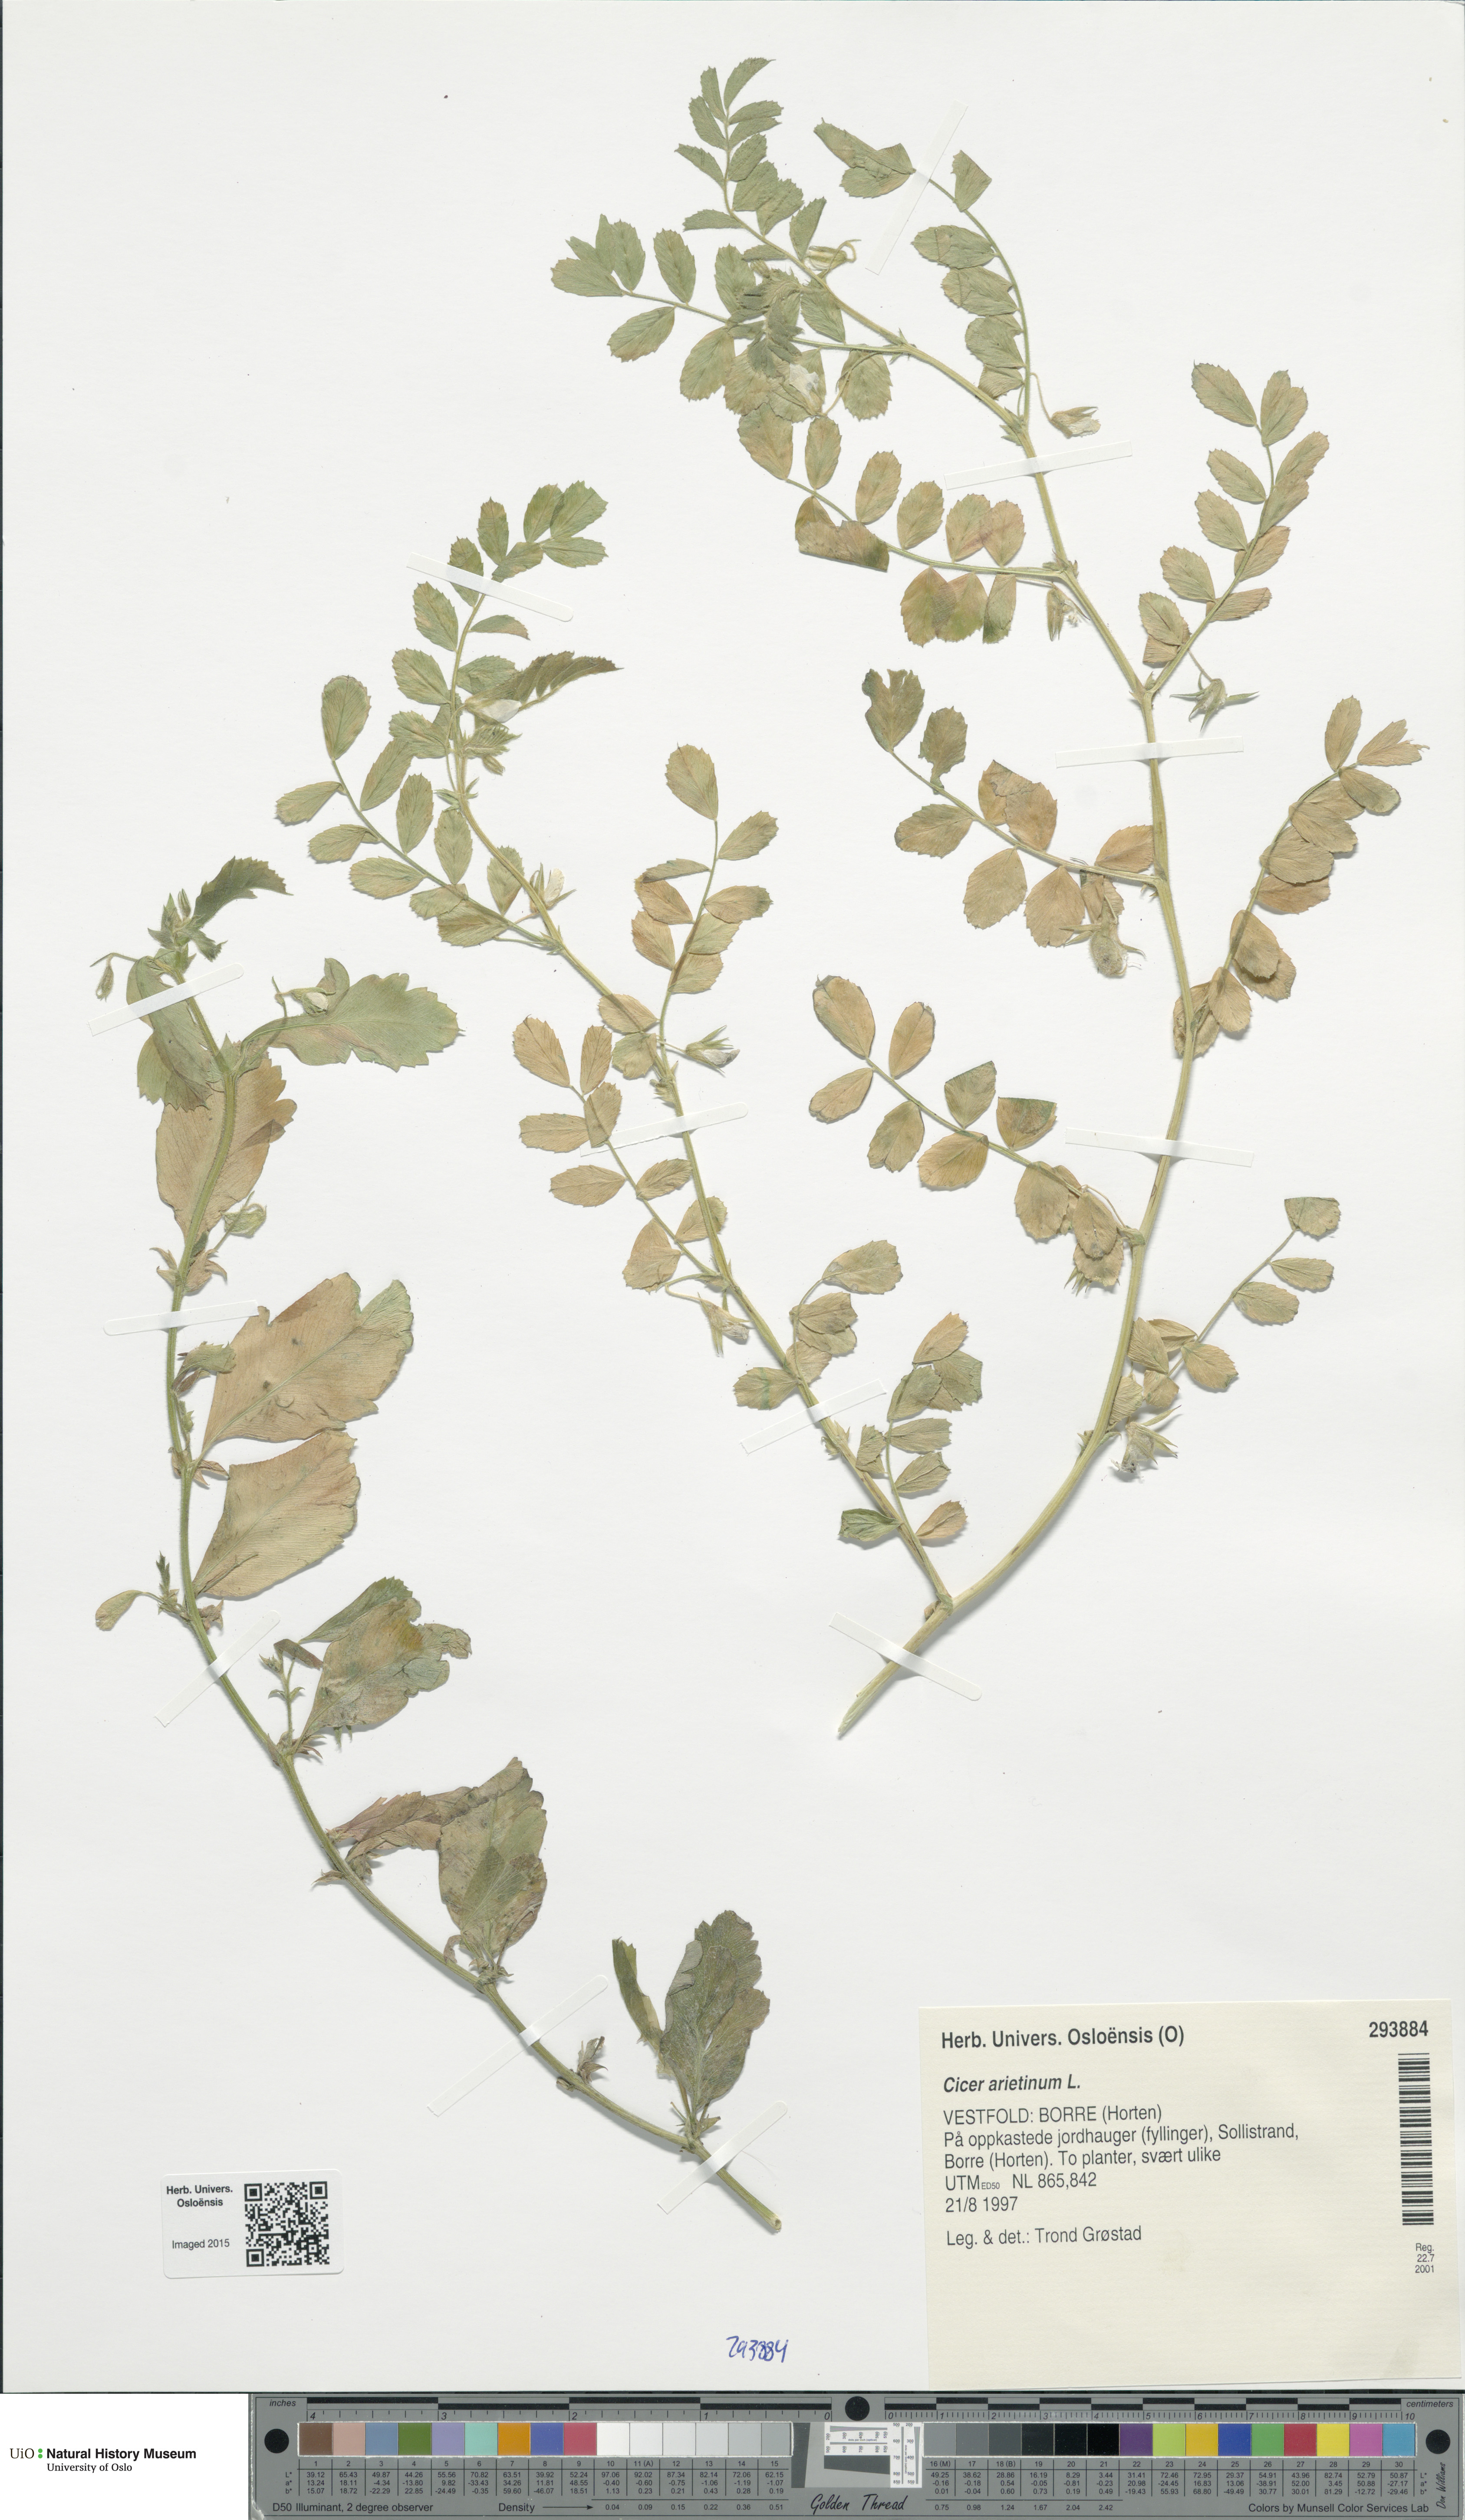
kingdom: Plantae
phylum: Tracheophyta
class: Magnoliopsida
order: Fabales
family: Fabaceae
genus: Cicer
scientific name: Cicer arietinum
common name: Chick pea
